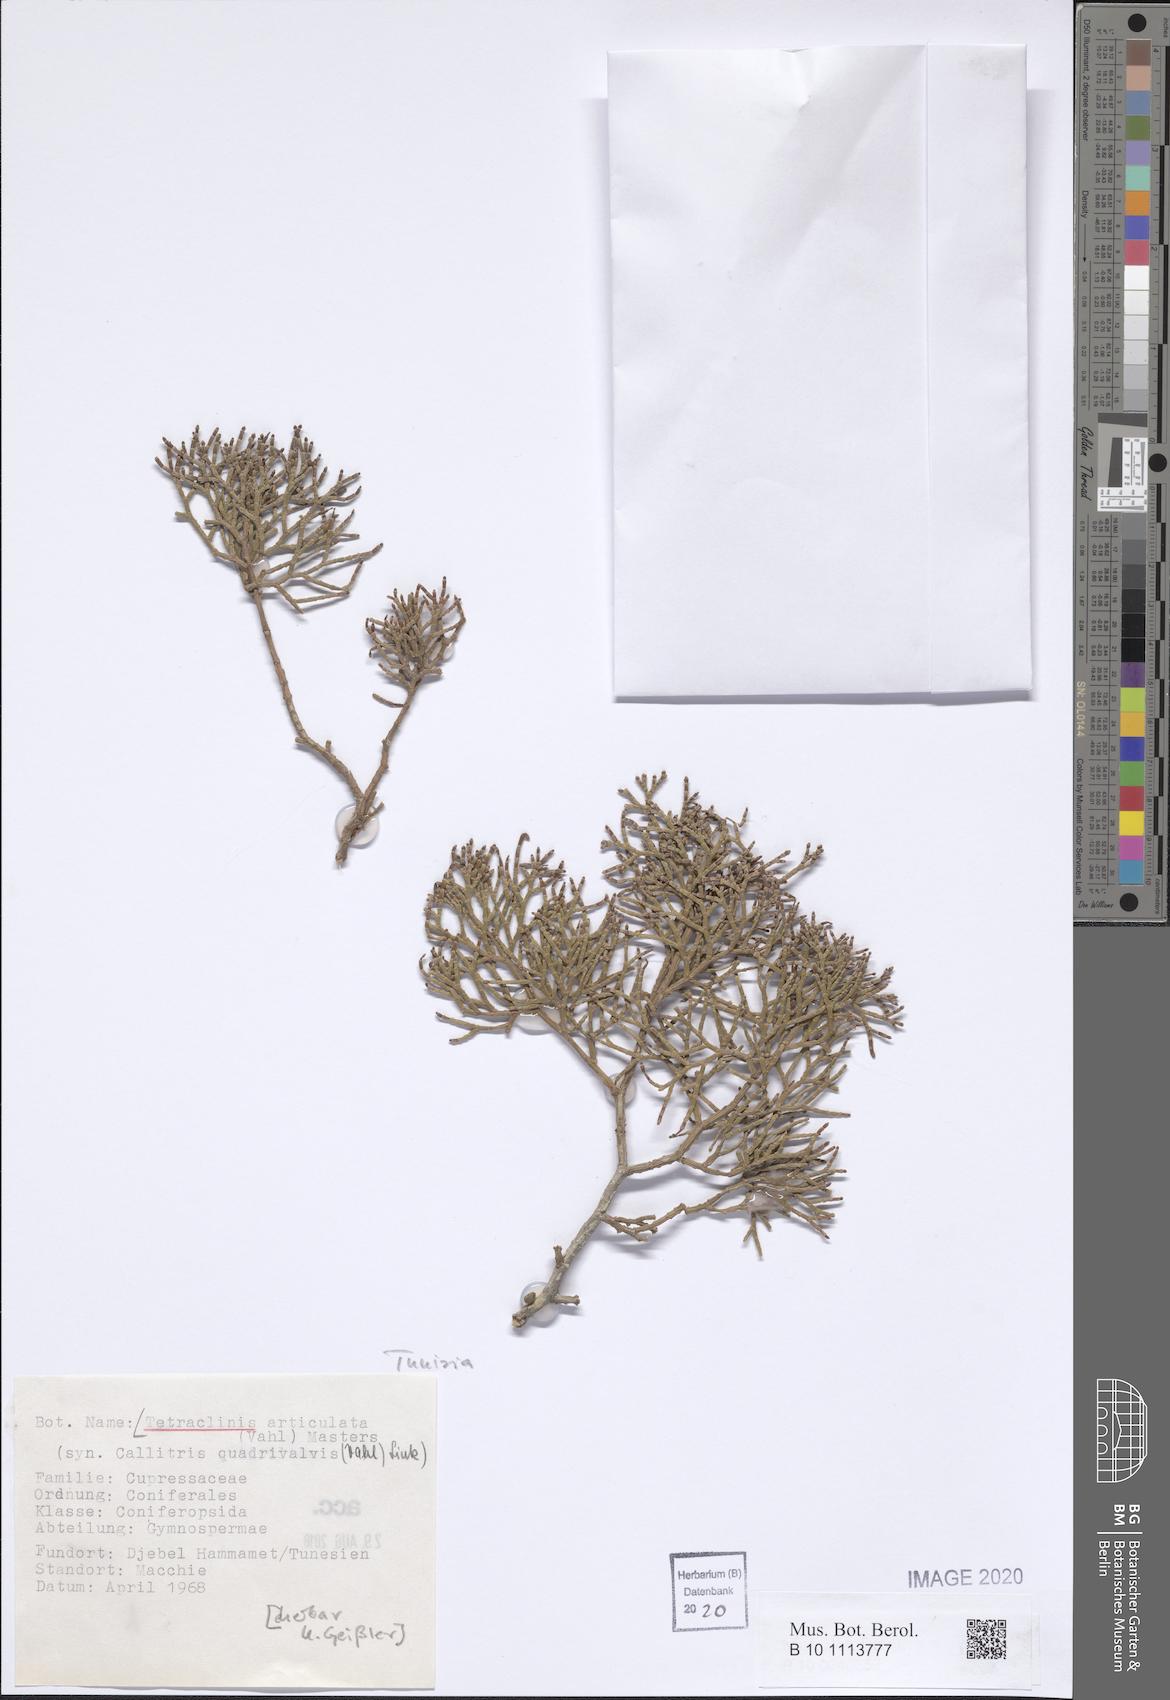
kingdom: Plantae
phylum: Tracheophyta
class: Pinopsida
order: Pinales
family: Cupressaceae
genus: Tetraclinis
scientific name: Tetraclinis articulata
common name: Sandarac
